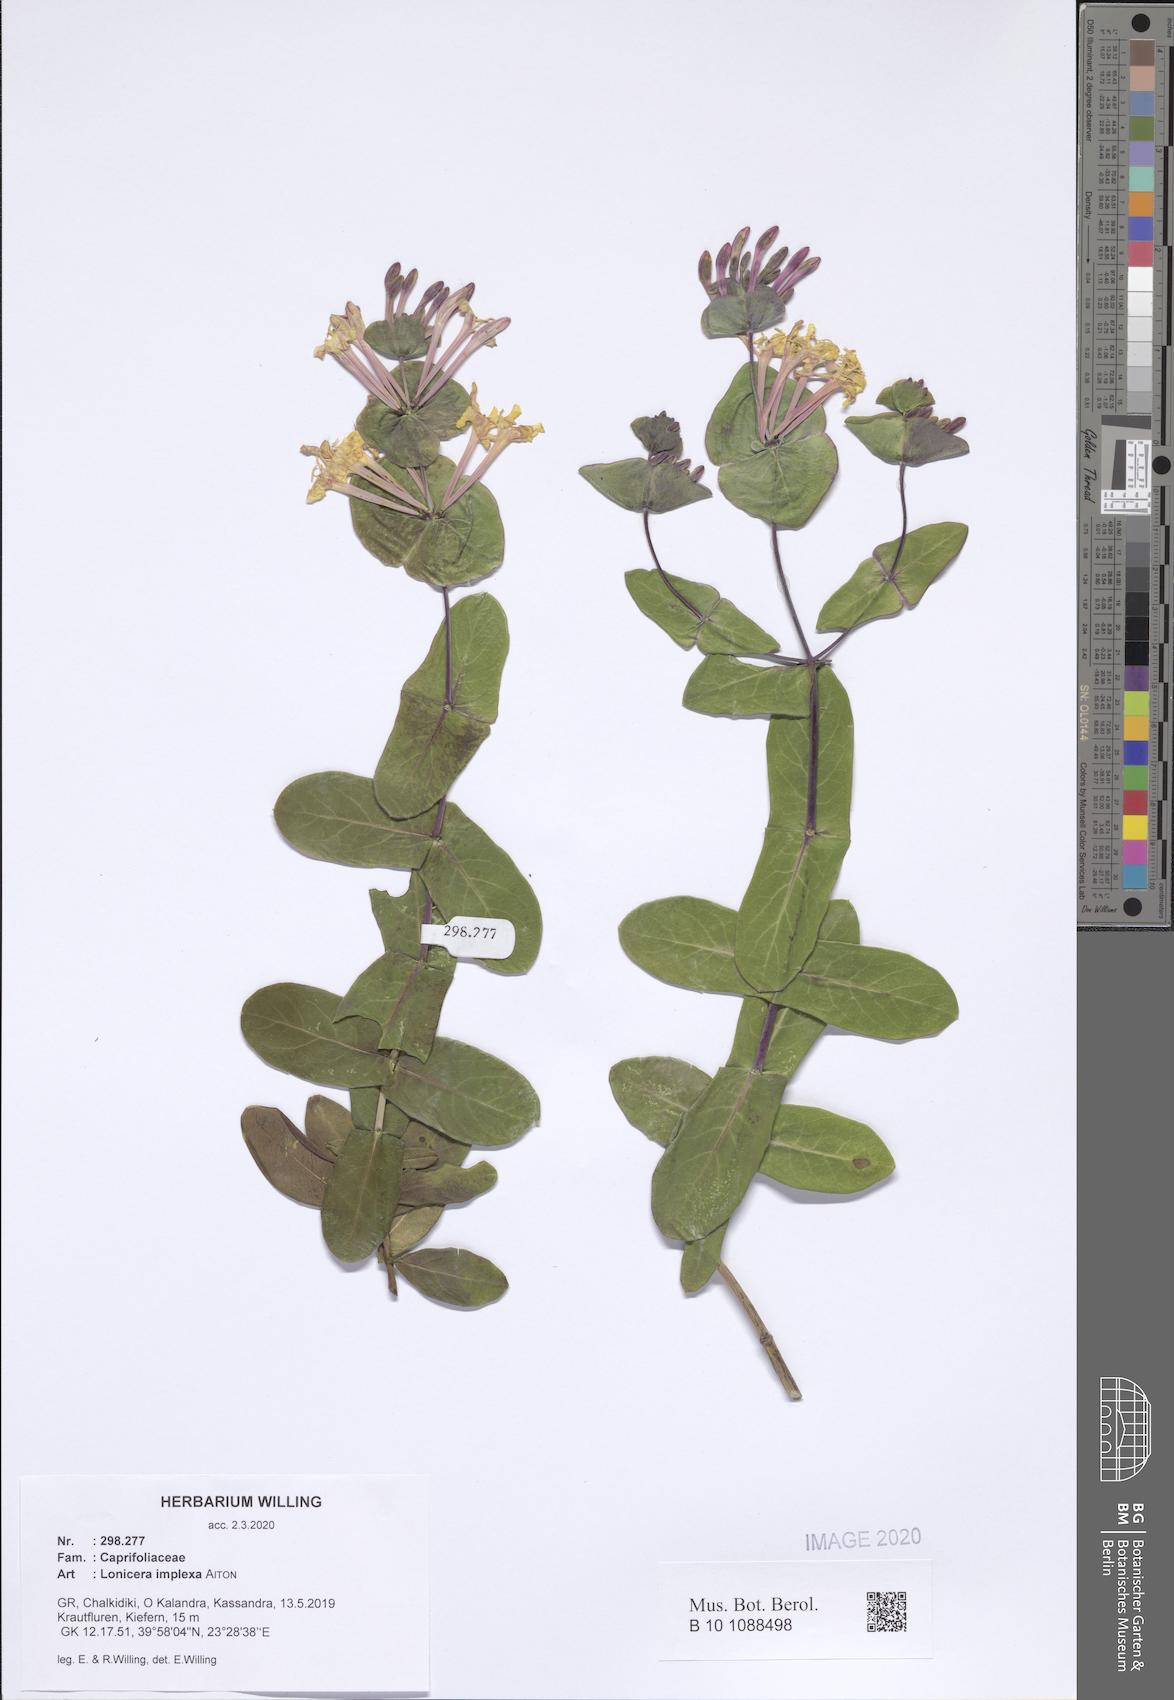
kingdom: Plantae
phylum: Tracheophyta
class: Magnoliopsida
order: Dipsacales
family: Caprifoliaceae
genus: Lonicera
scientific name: Lonicera implexa
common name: Minorca honeysuckle
